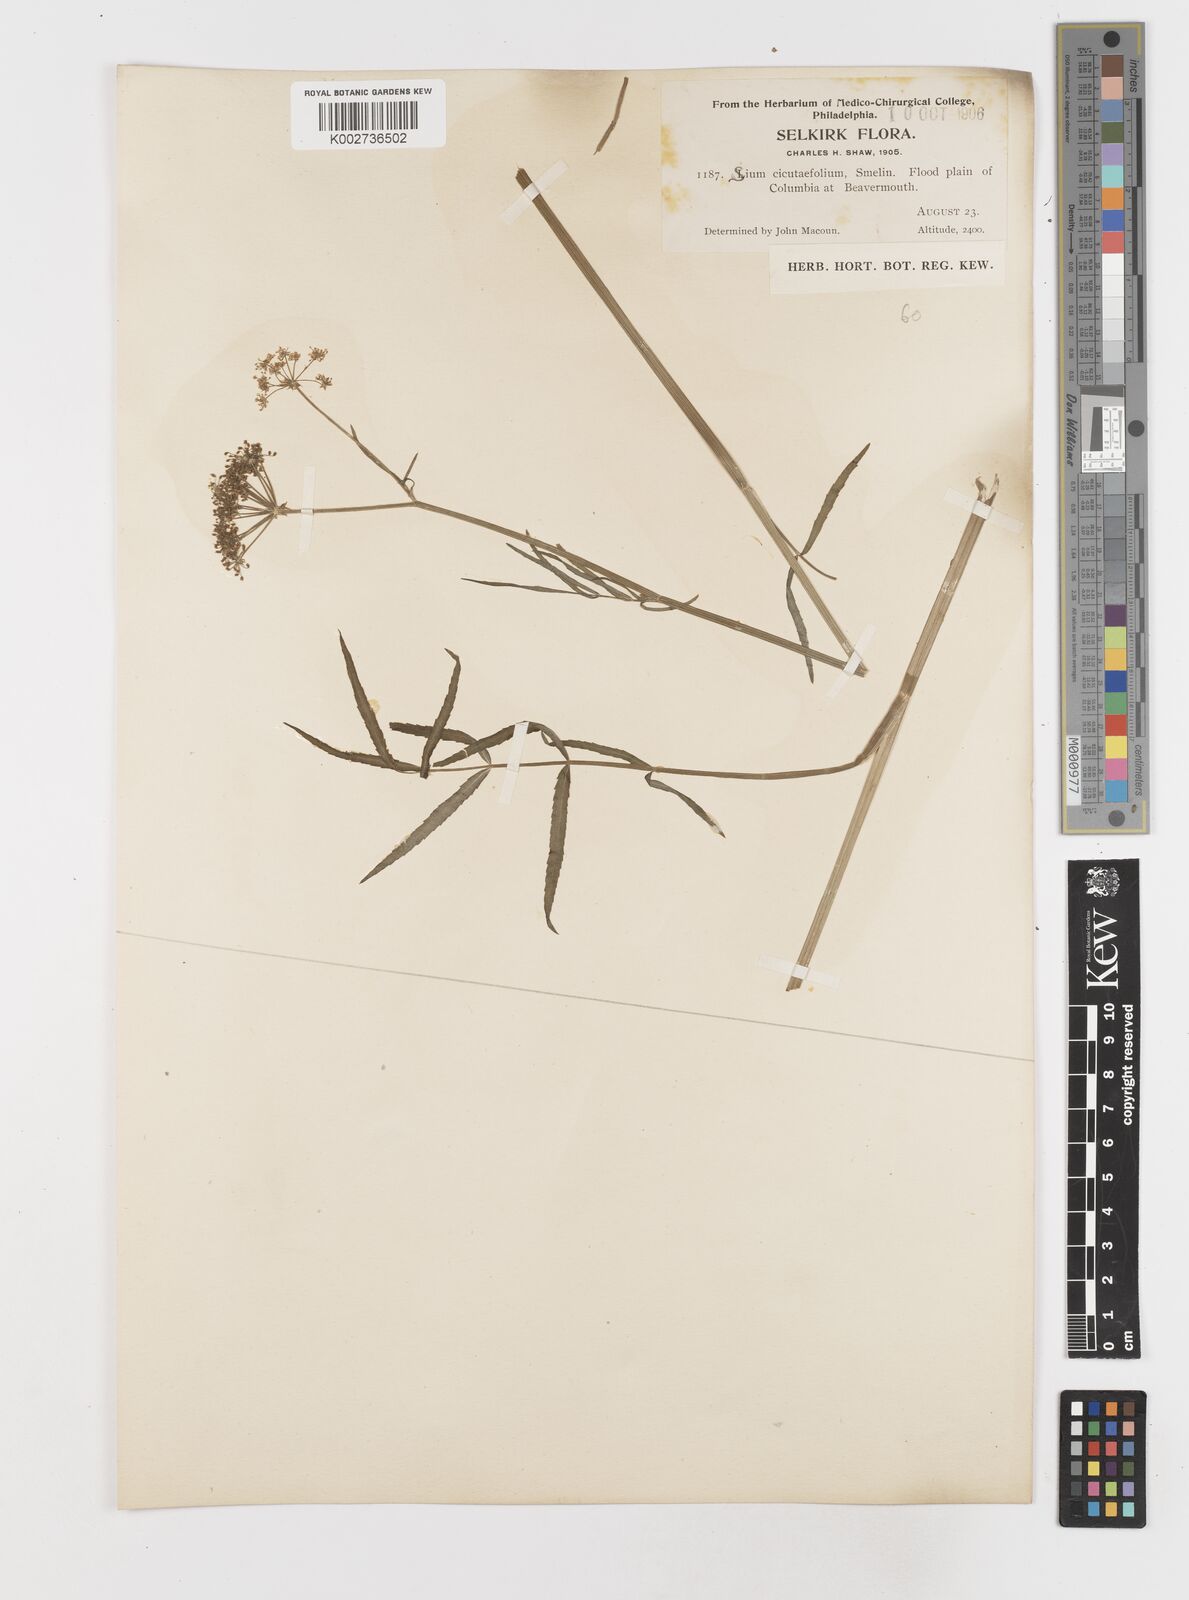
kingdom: Plantae
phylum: Tracheophyta
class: Magnoliopsida
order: Apiales
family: Apiaceae
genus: Sium
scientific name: Sium suave
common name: Hemlock water-parsnip
